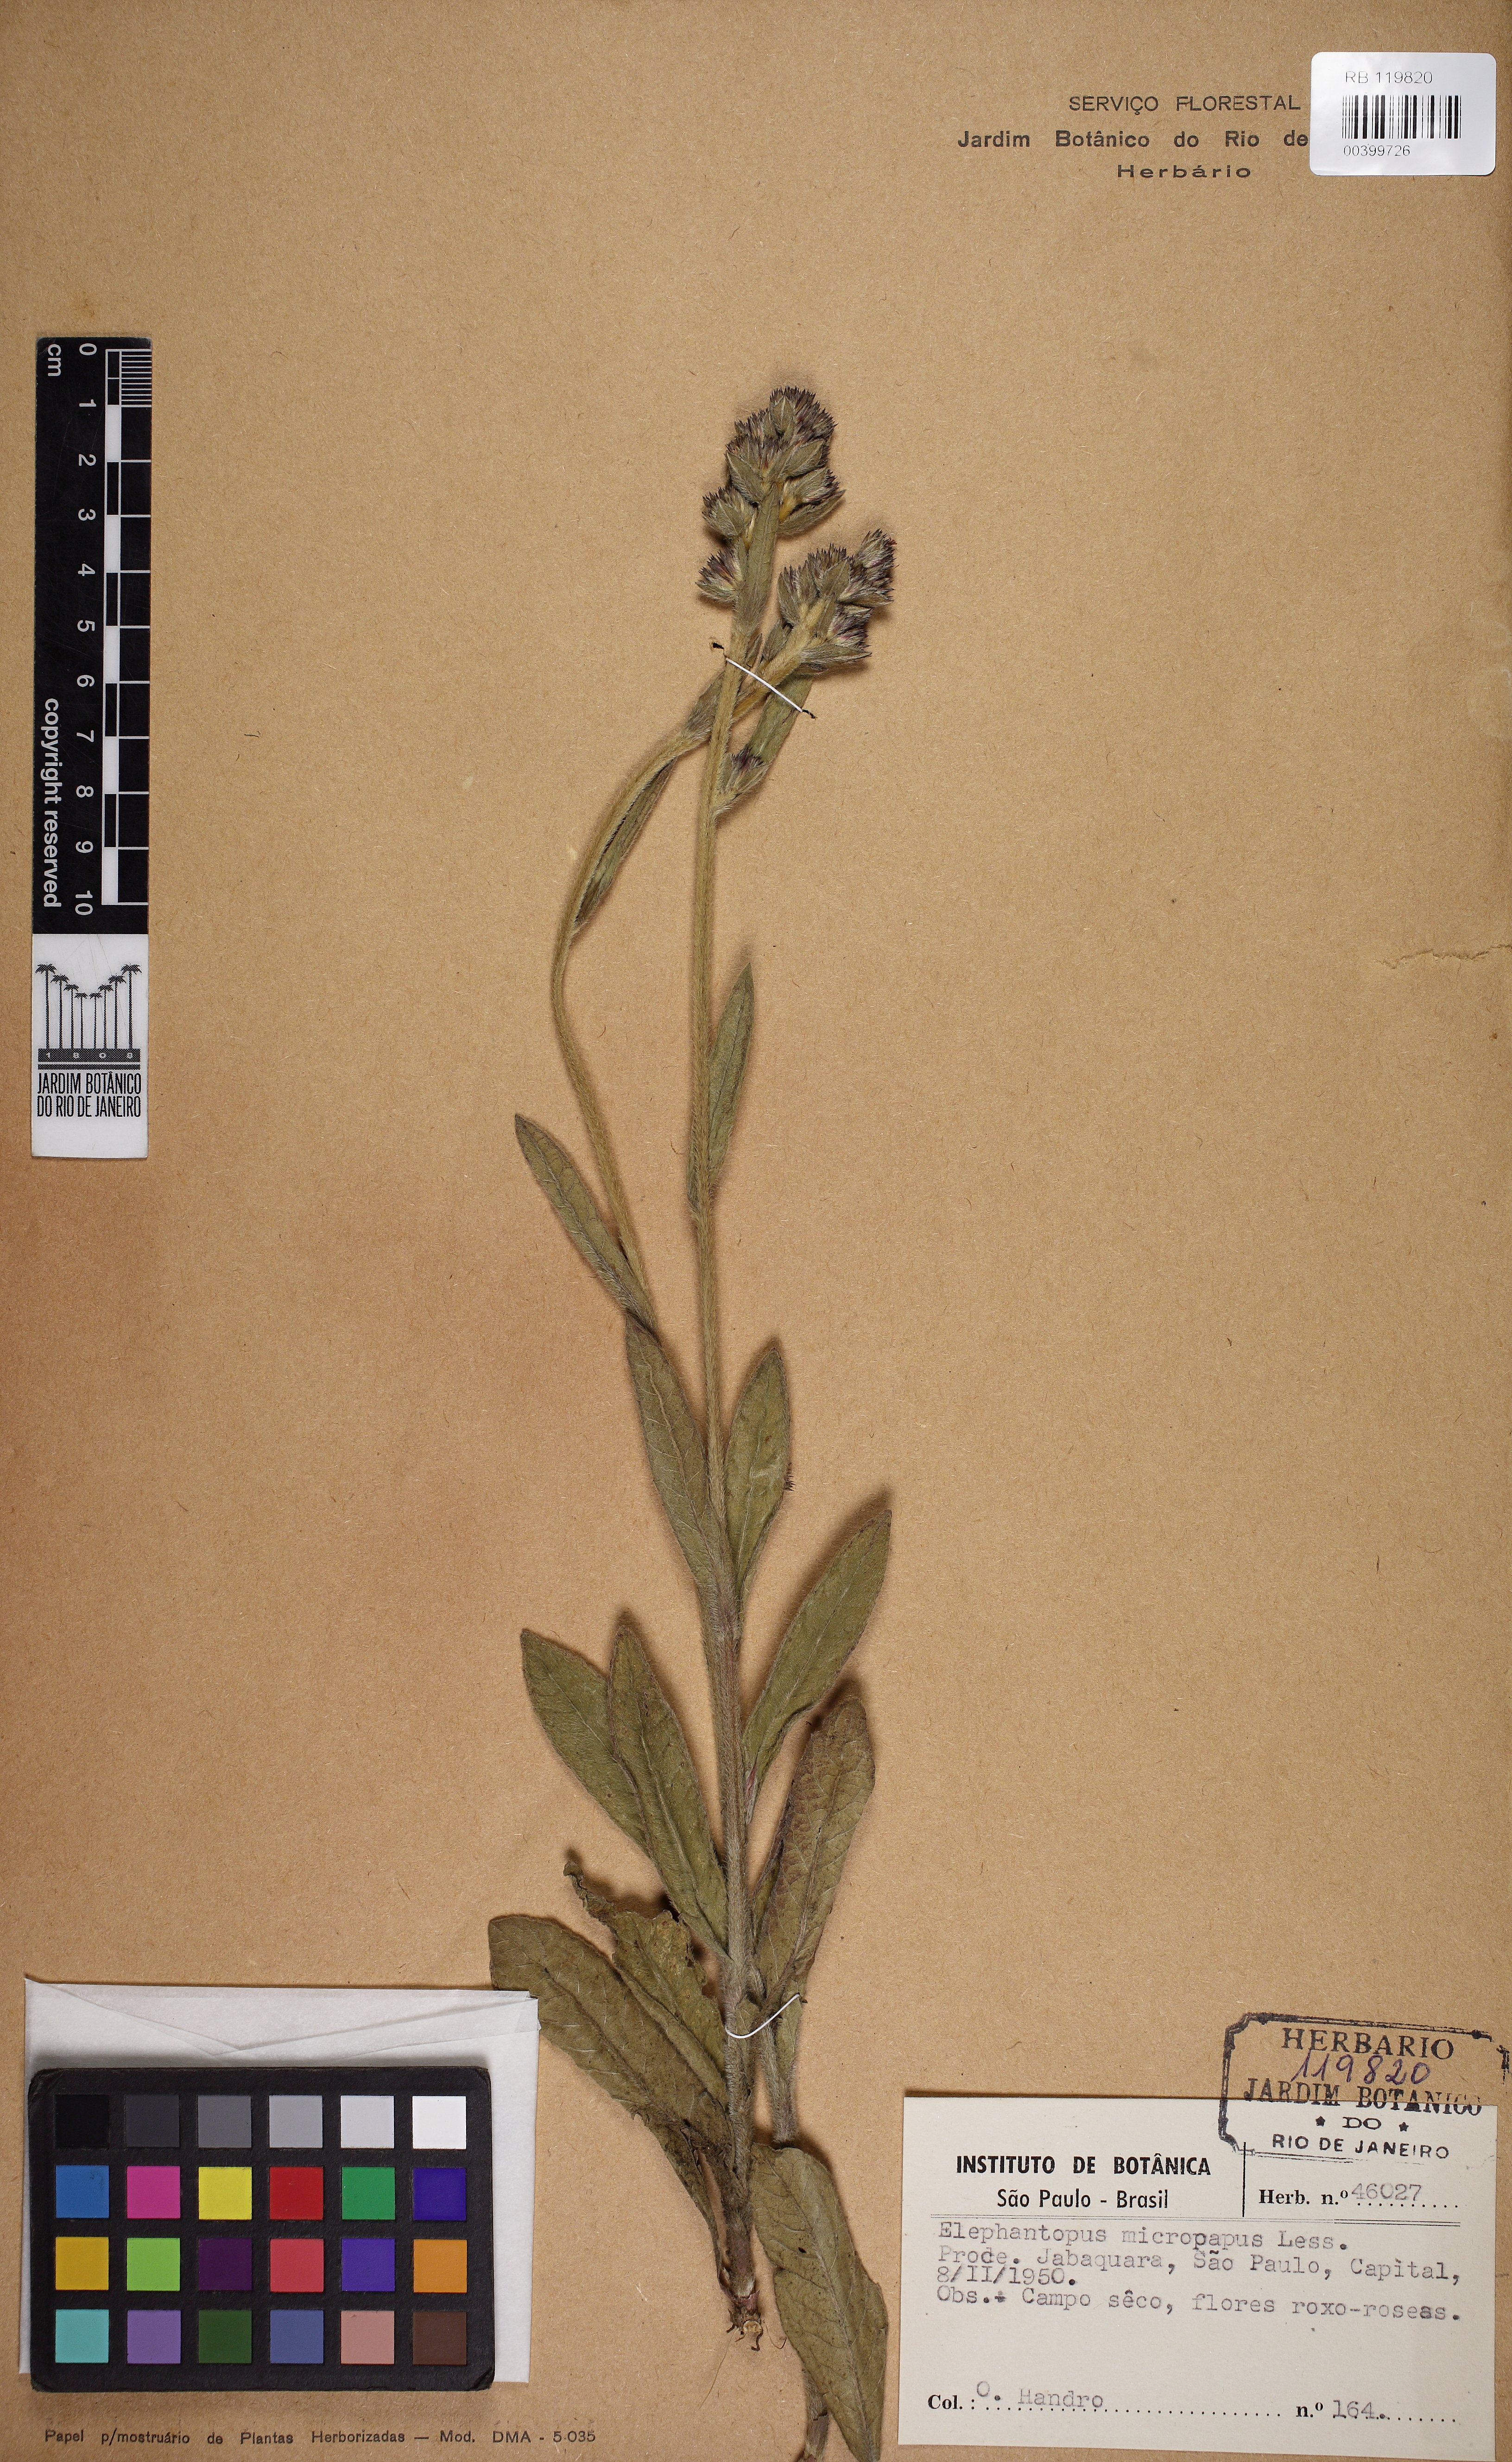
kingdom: Plantae
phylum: Tracheophyta
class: Magnoliopsida
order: Asterales
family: Asteraceae
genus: Elephantopus
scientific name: Elephantopus micropappus
